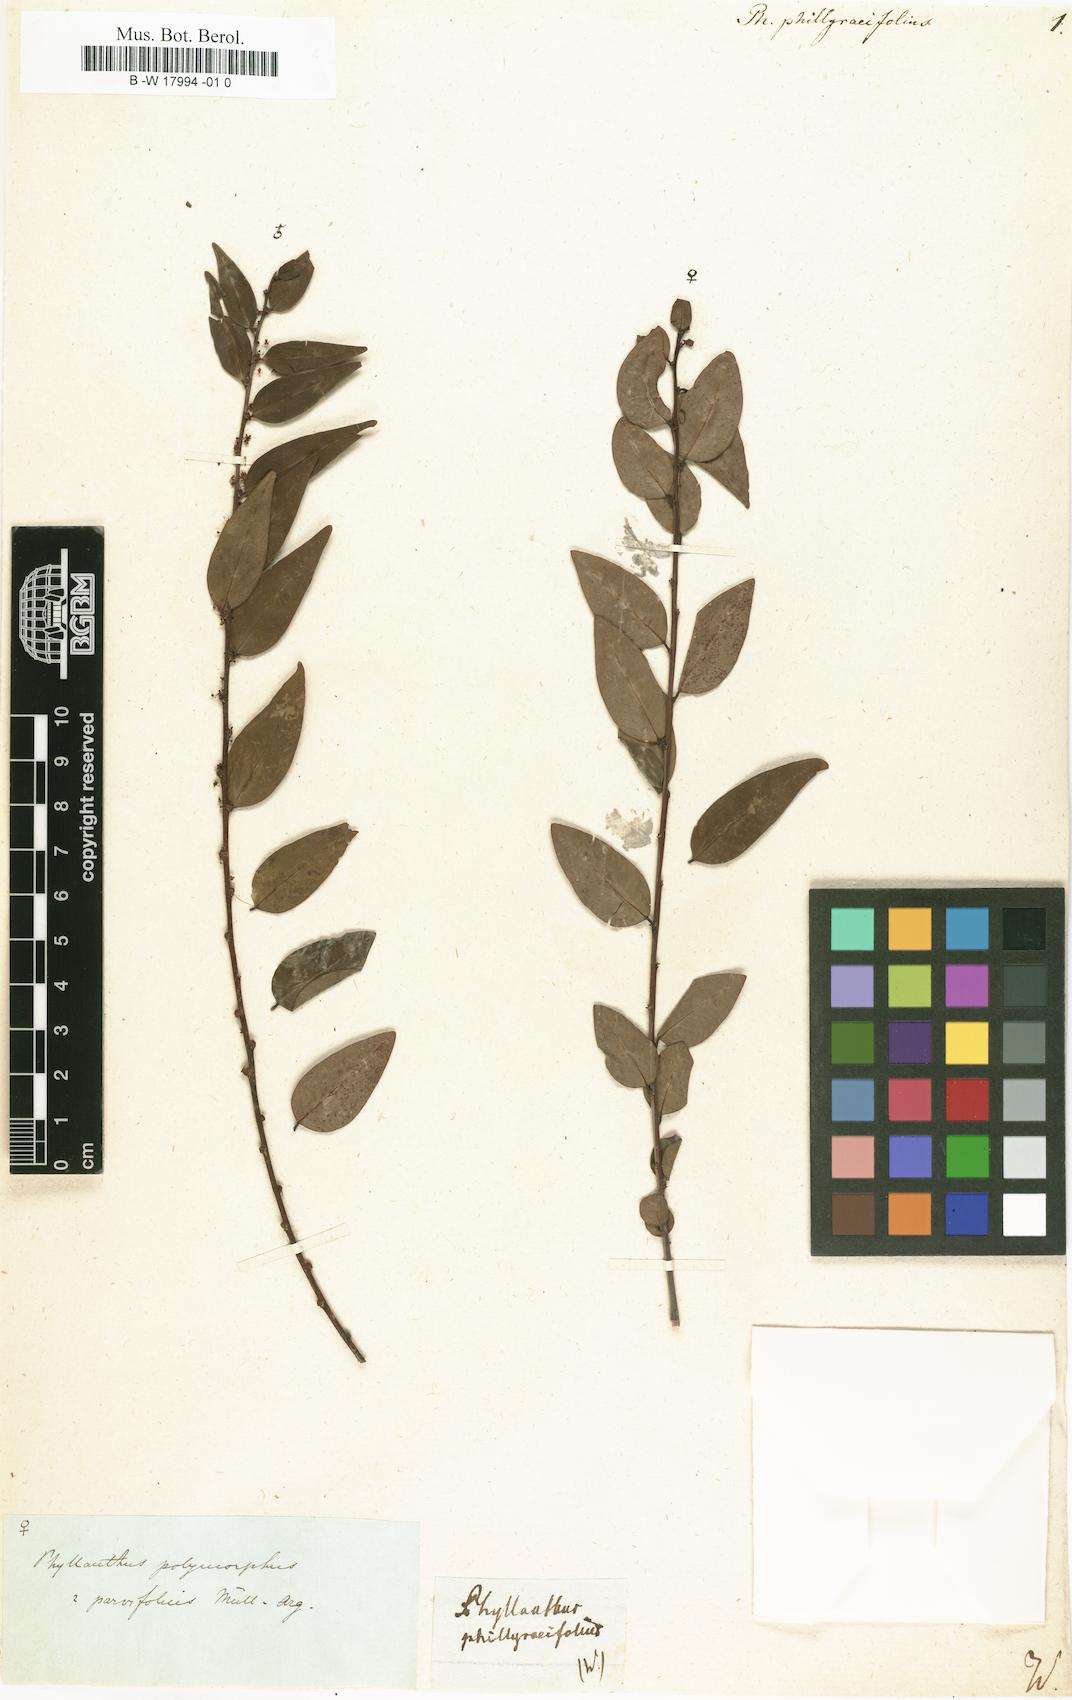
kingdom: Plantae
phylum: Tracheophyta
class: Magnoliopsida
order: Malpighiales
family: Phyllanthaceae
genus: Phyllanthus
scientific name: Phyllanthus phillyreifolius
